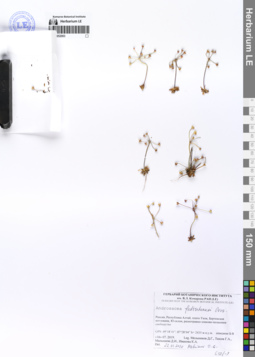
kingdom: Plantae
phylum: Tracheophyta
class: Magnoliopsida
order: Ericales
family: Primulaceae
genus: Androsace
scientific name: Androsace fedtschenkoi
